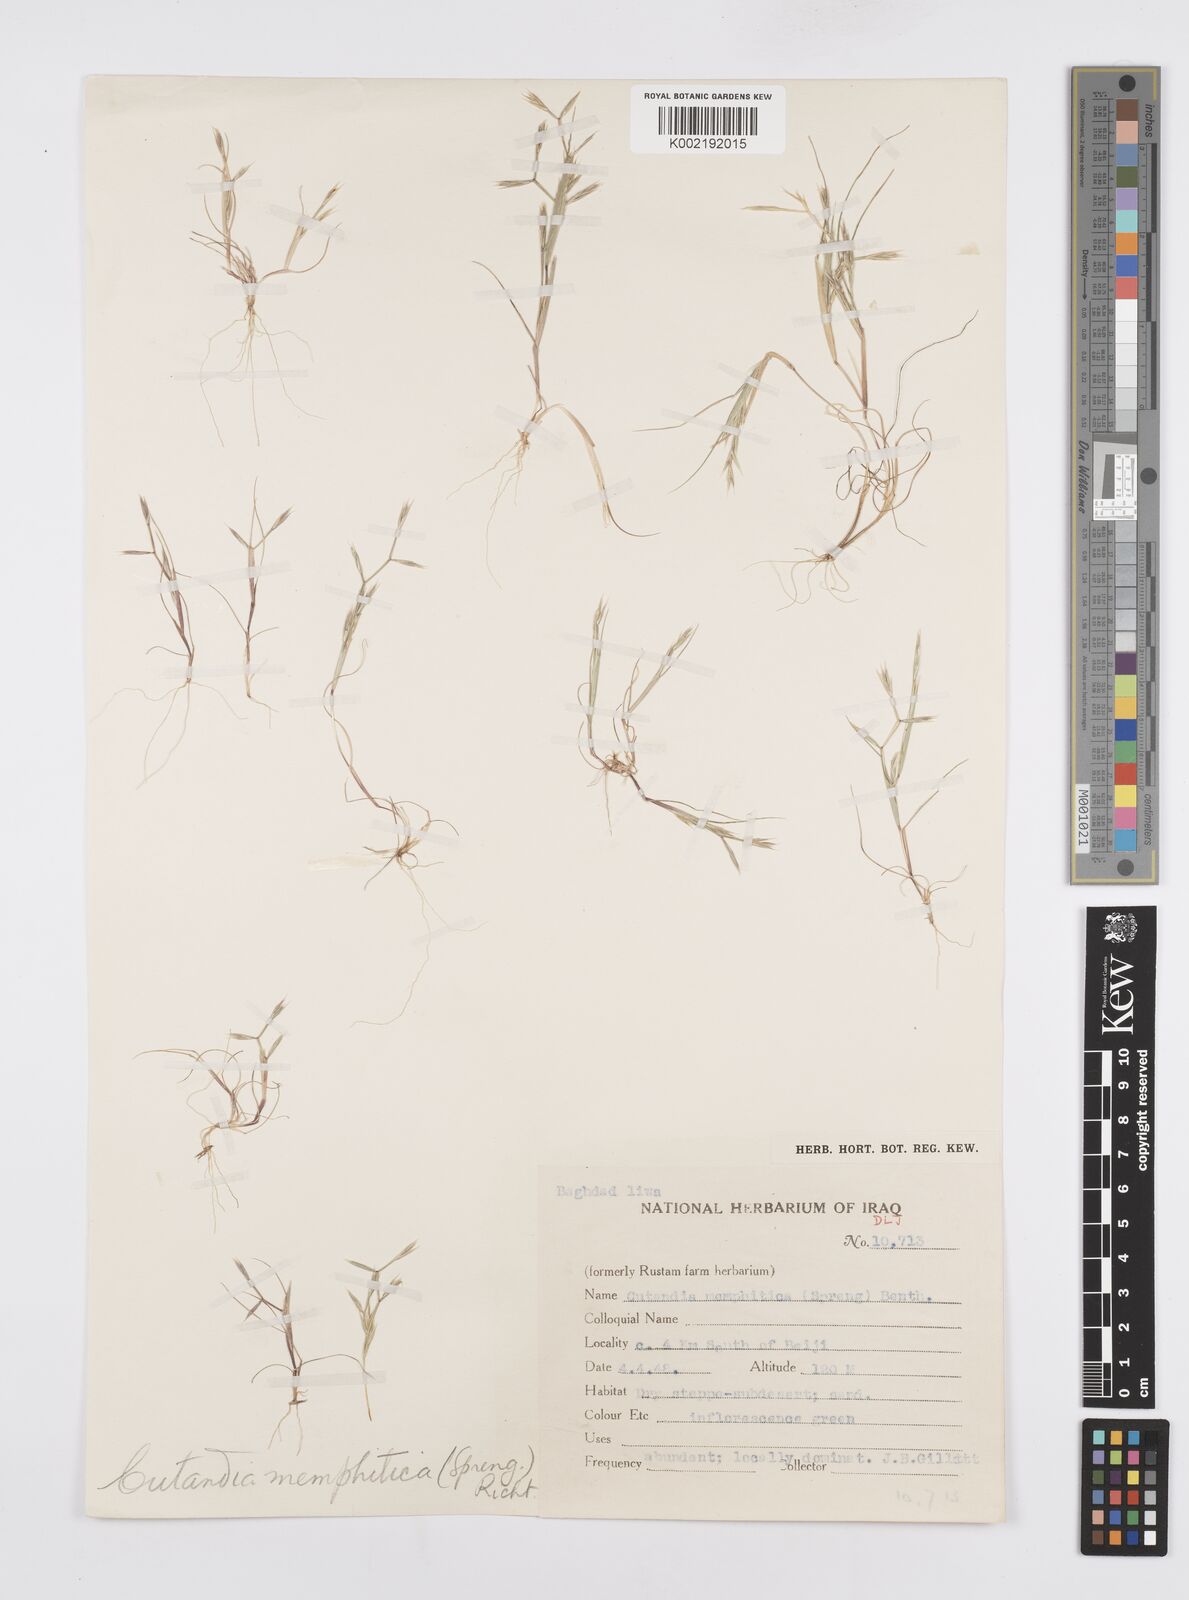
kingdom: Plantae
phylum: Tracheophyta
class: Liliopsida
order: Poales
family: Poaceae
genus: Cutandia
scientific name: Cutandia memphitica
